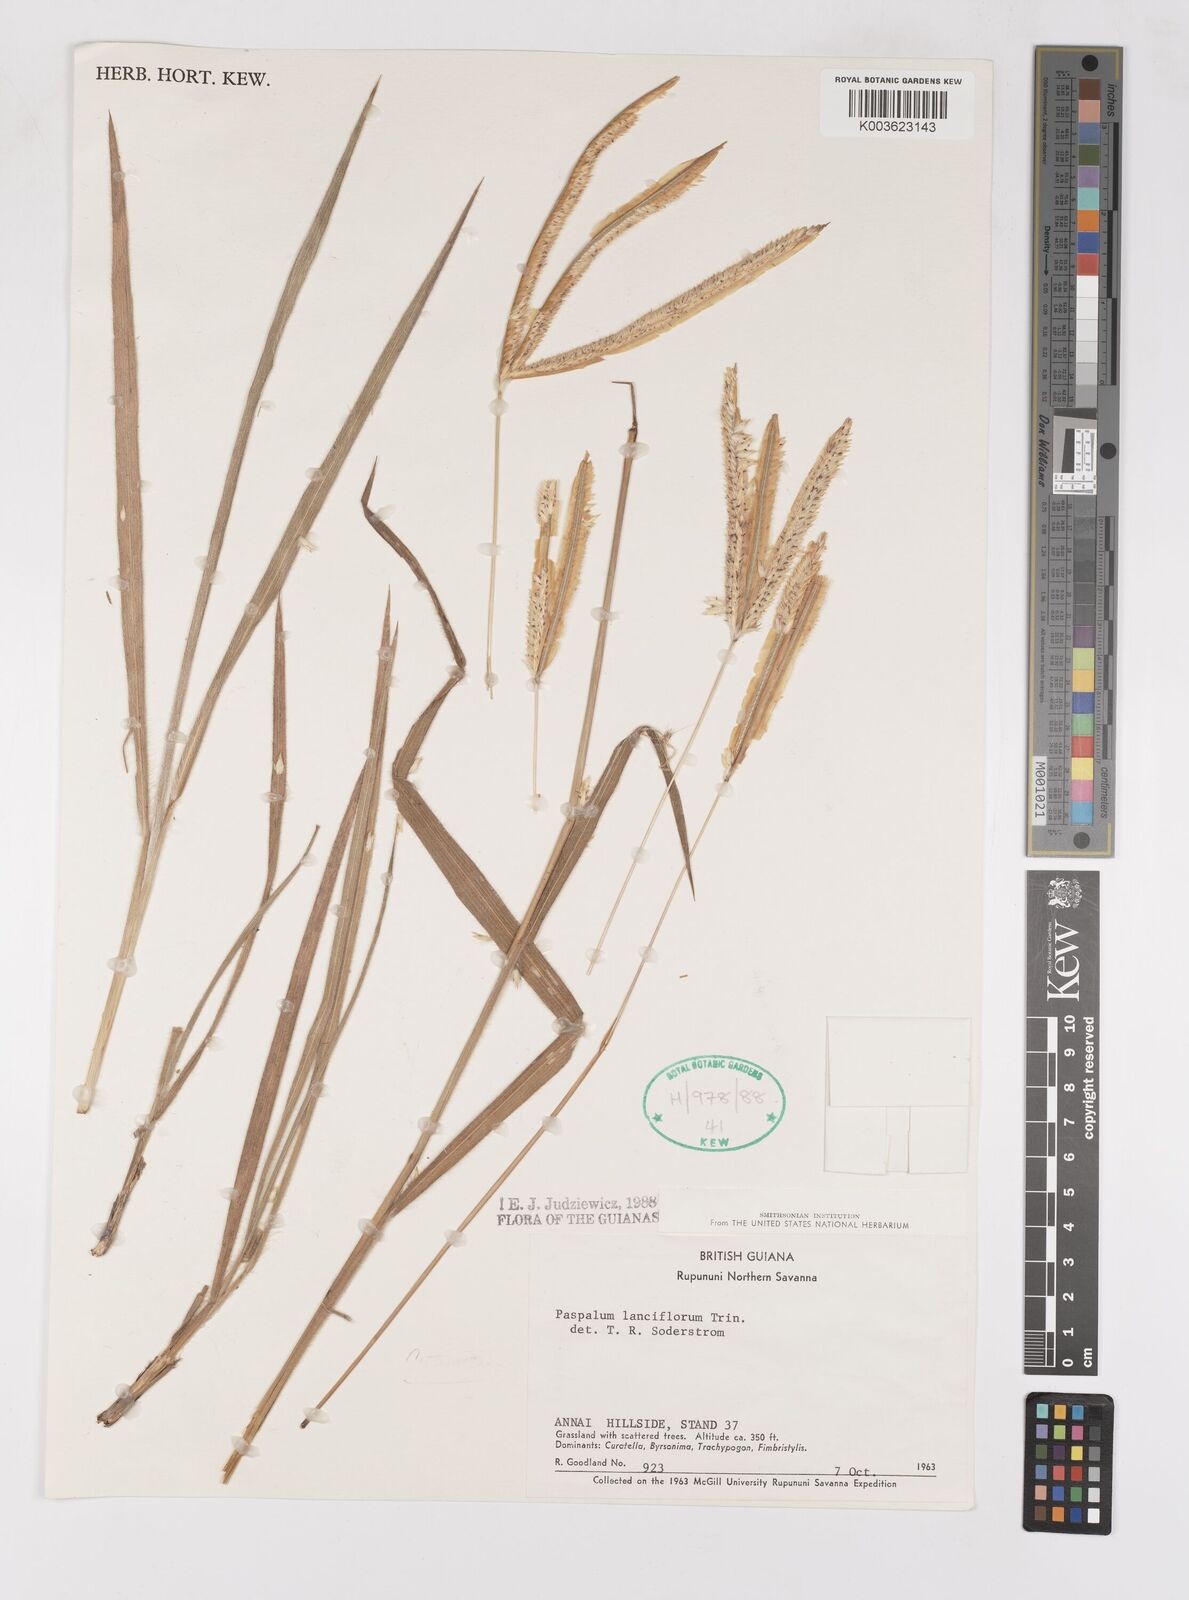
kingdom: Plantae
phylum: Tracheophyta
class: Liliopsida
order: Poales
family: Poaceae
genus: Paspalum
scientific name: Paspalum lanciflorum
